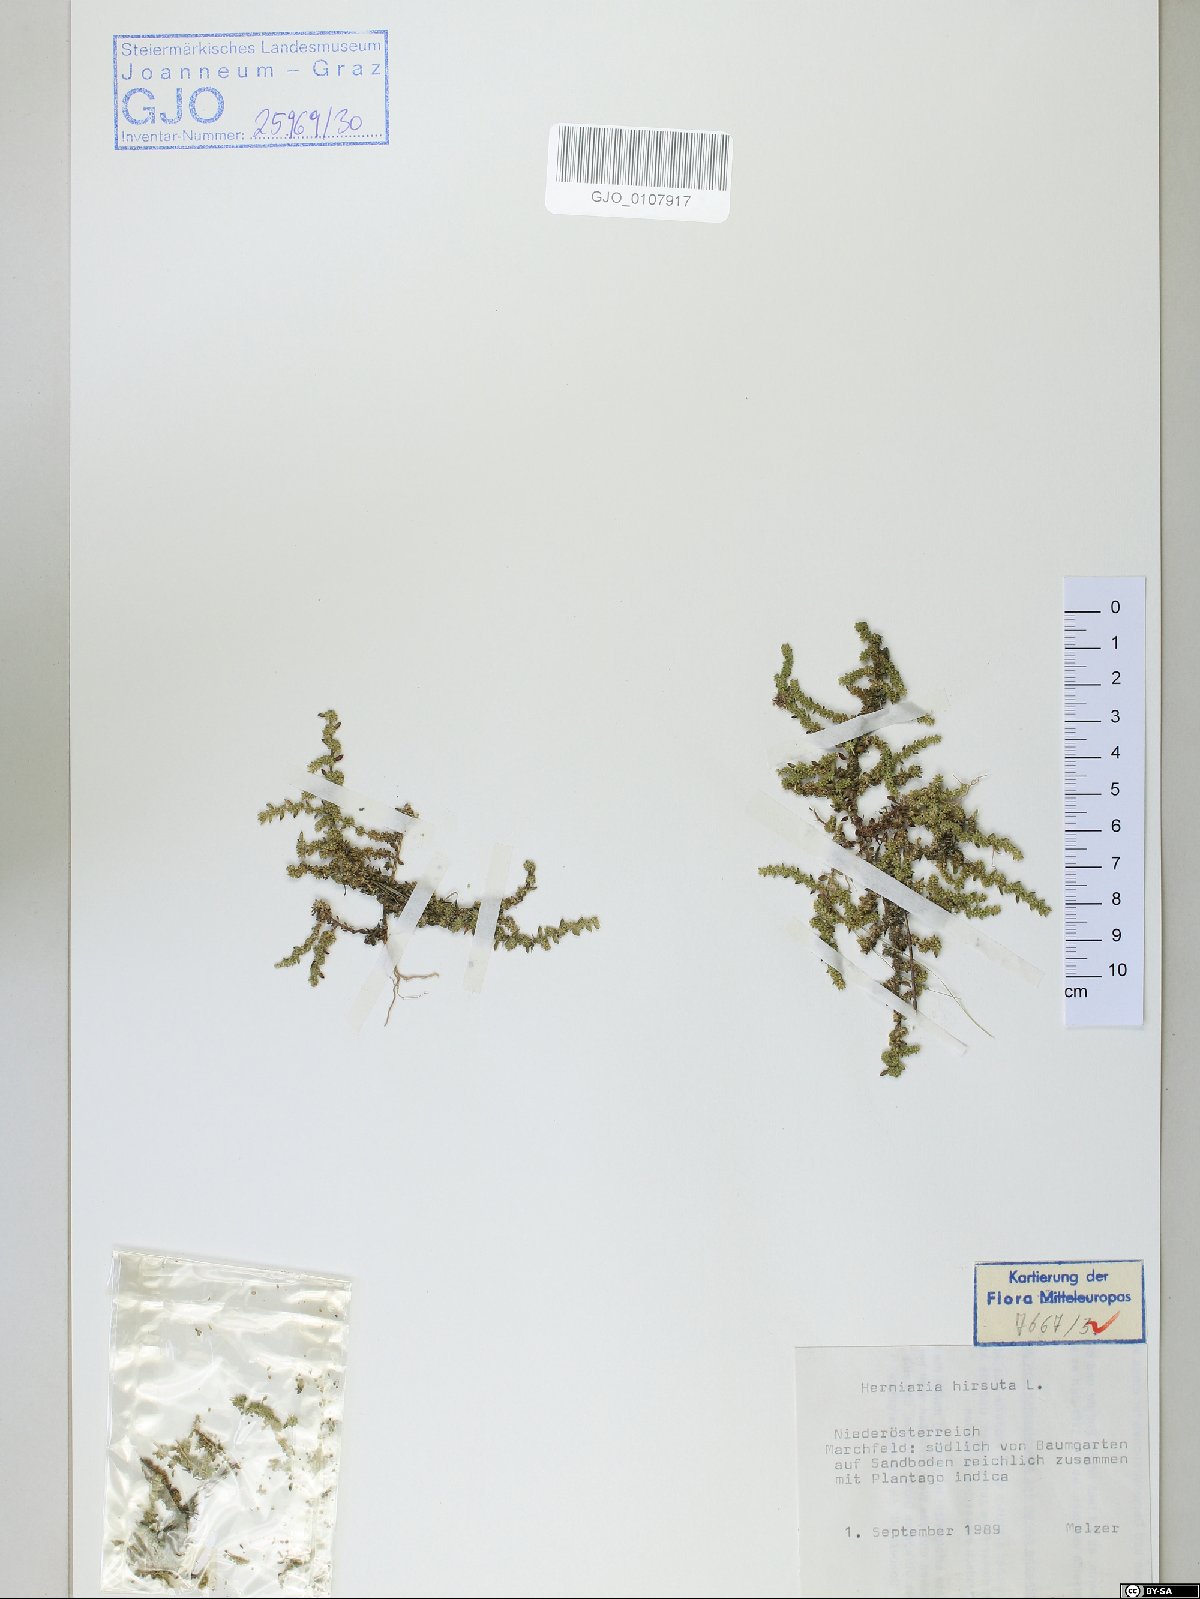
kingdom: Plantae
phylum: Tracheophyta
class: Magnoliopsida
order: Caryophyllales
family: Caryophyllaceae
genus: Herniaria
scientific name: Herniaria hirsuta
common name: Hairy rupturewort
